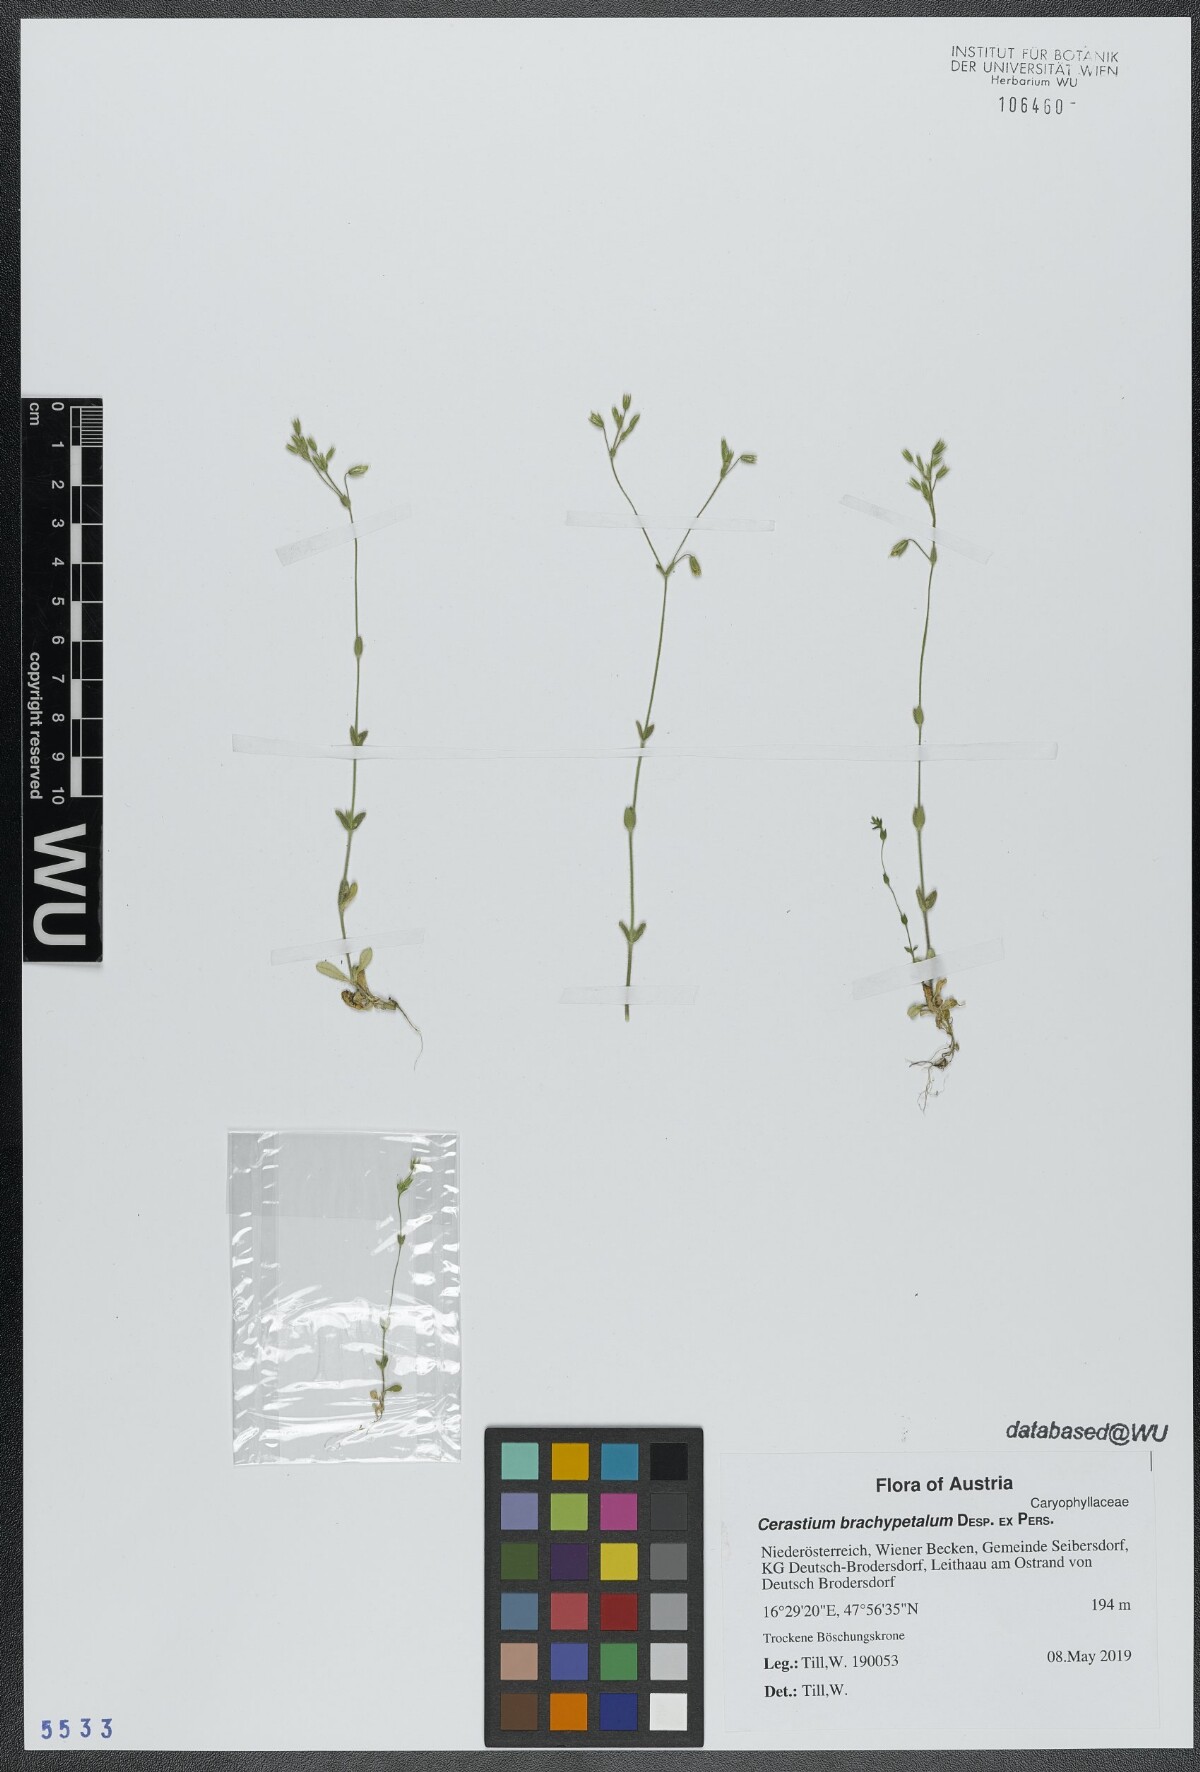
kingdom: Plantae
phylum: Tracheophyta
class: Magnoliopsida
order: Caryophyllales
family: Caryophyllaceae
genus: Cerastium
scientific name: Cerastium brachypetalum
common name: Grey mouse-ear
